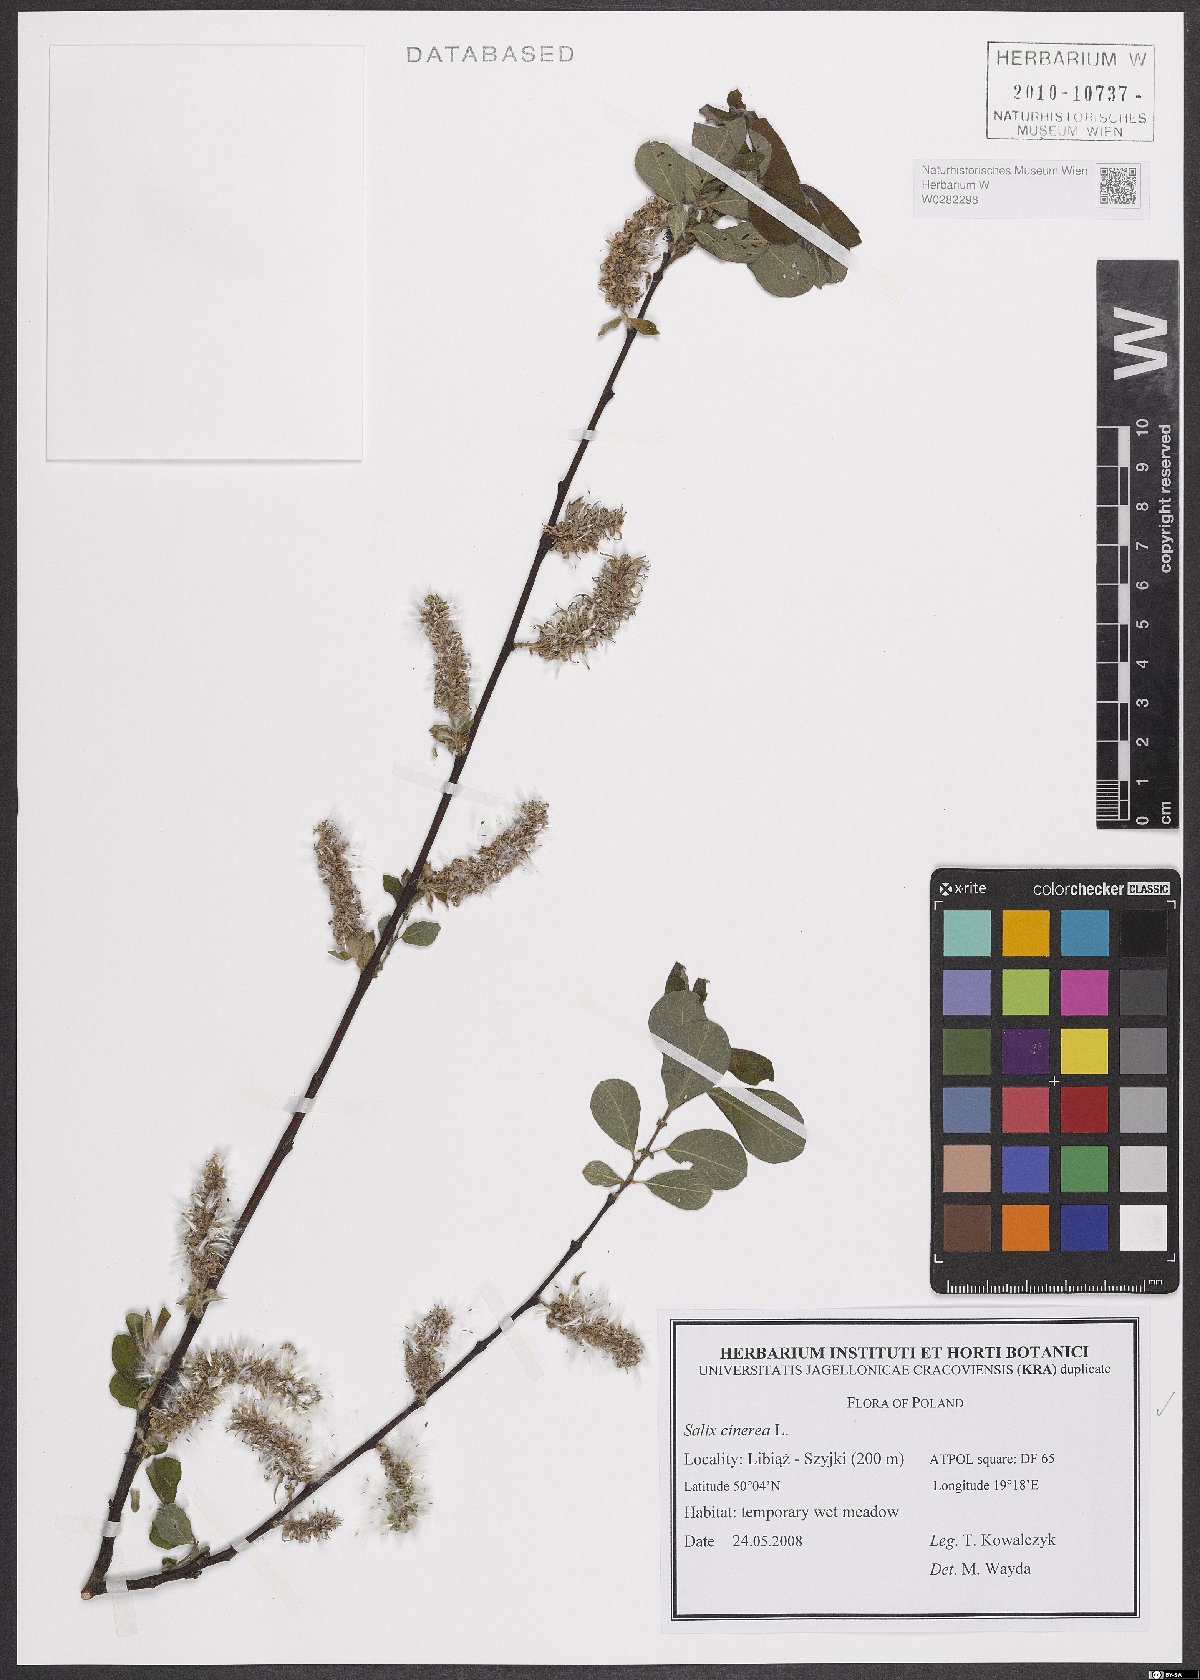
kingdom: Plantae
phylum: Tracheophyta
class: Magnoliopsida
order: Malpighiales
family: Salicaceae
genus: Salix
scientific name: Salix cinerea
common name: Common sallow
